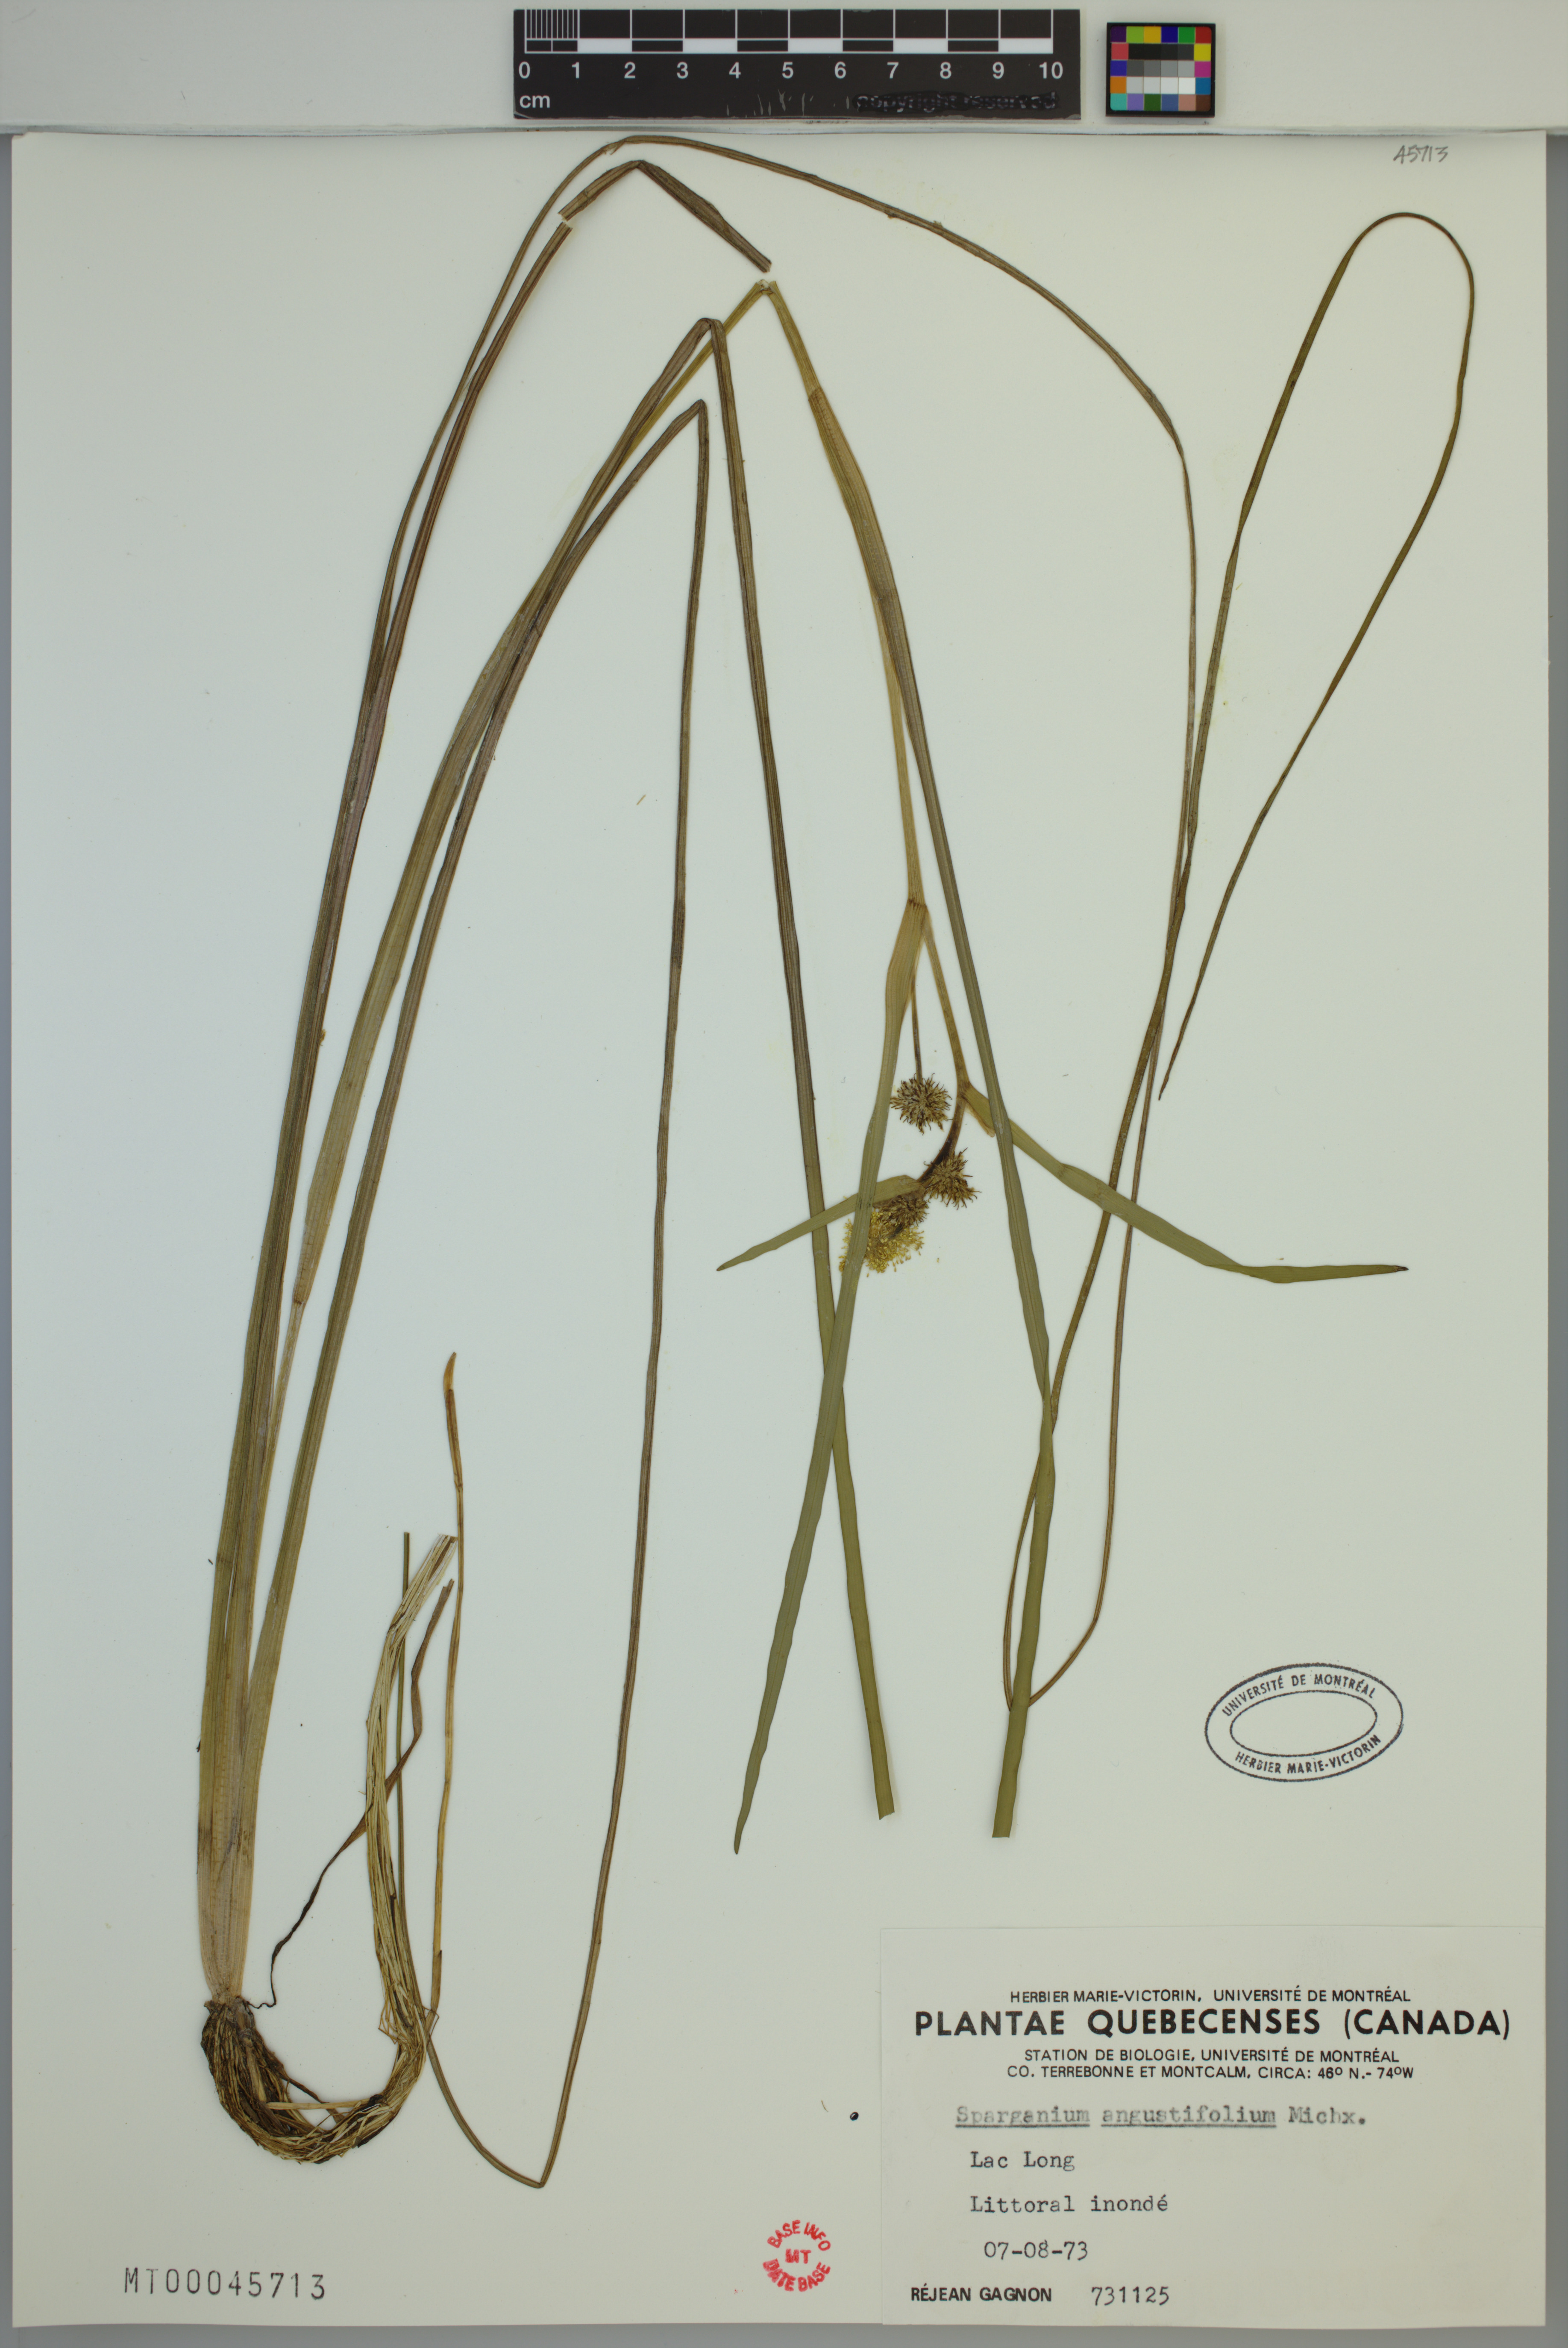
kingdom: Plantae
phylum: Tracheophyta
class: Liliopsida
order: Poales
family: Typhaceae
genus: Sparganium
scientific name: Sparganium angustifolium
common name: Floating bur-reed
